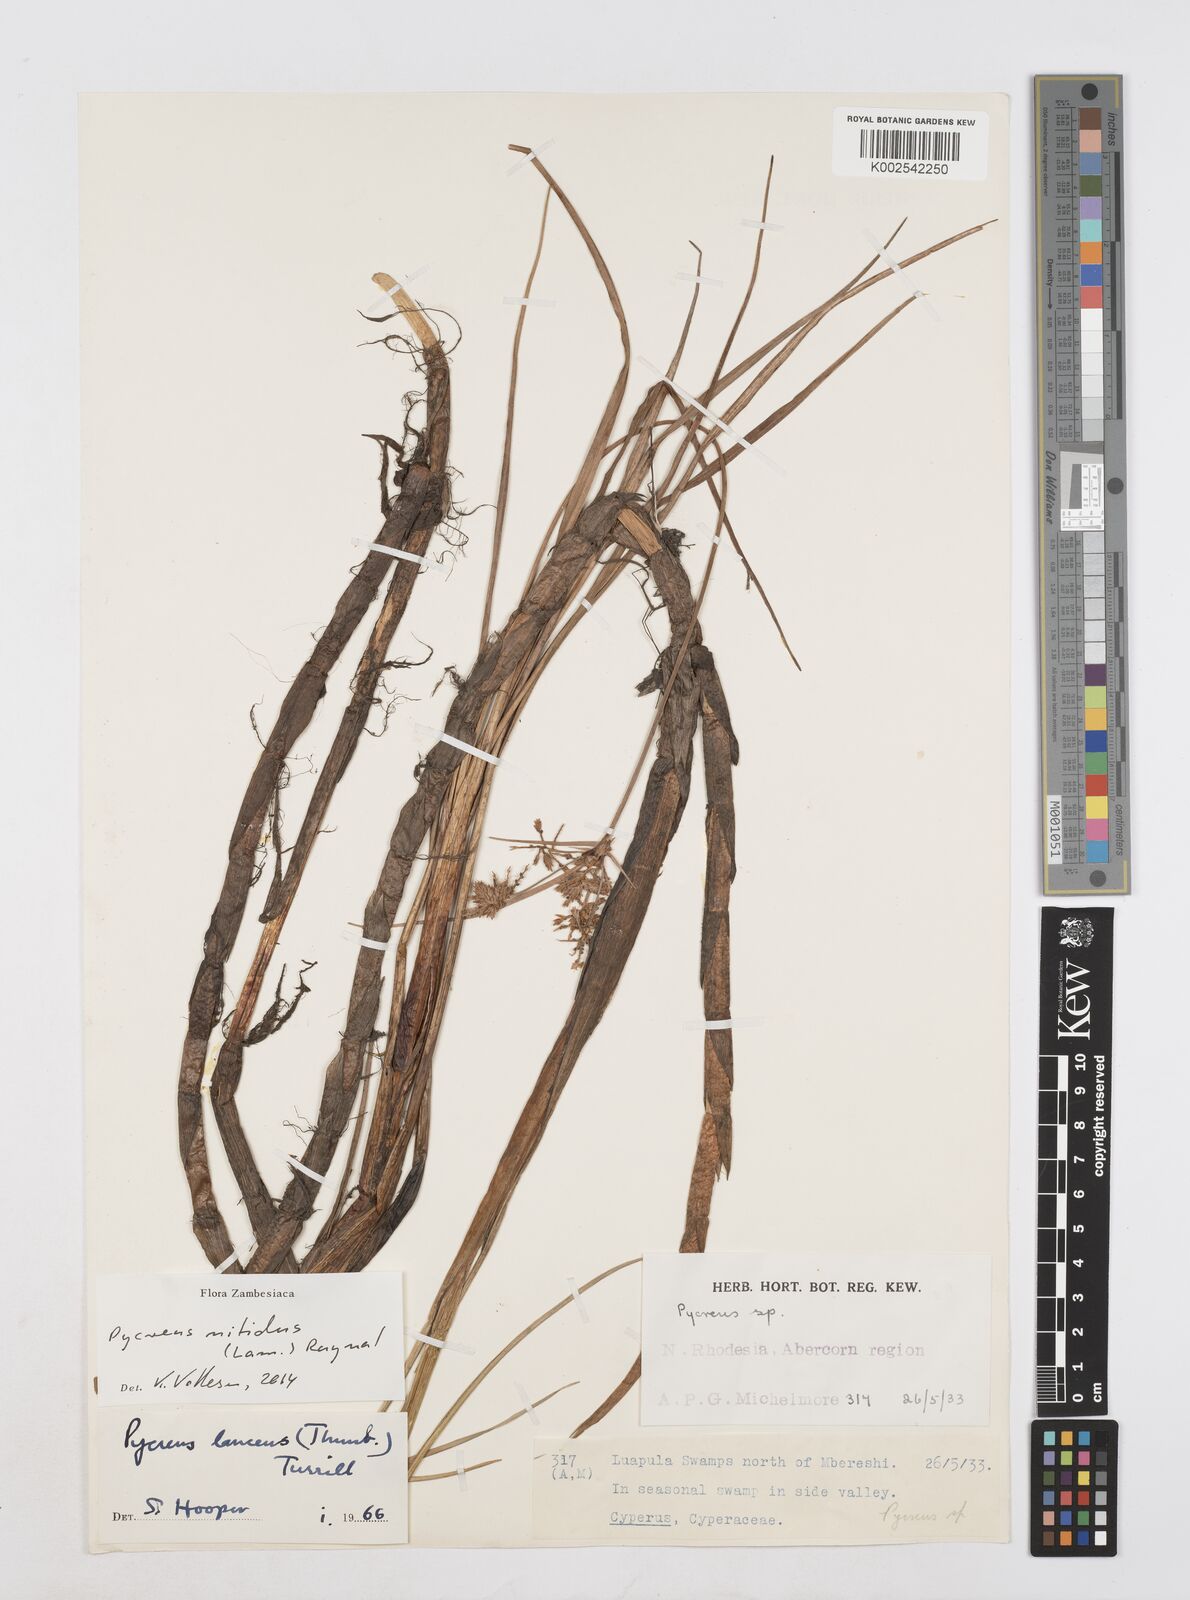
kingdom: Plantae
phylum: Tracheophyta
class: Liliopsida
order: Poales
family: Cyperaceae
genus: Cyperus
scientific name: Cyperus nitidus
